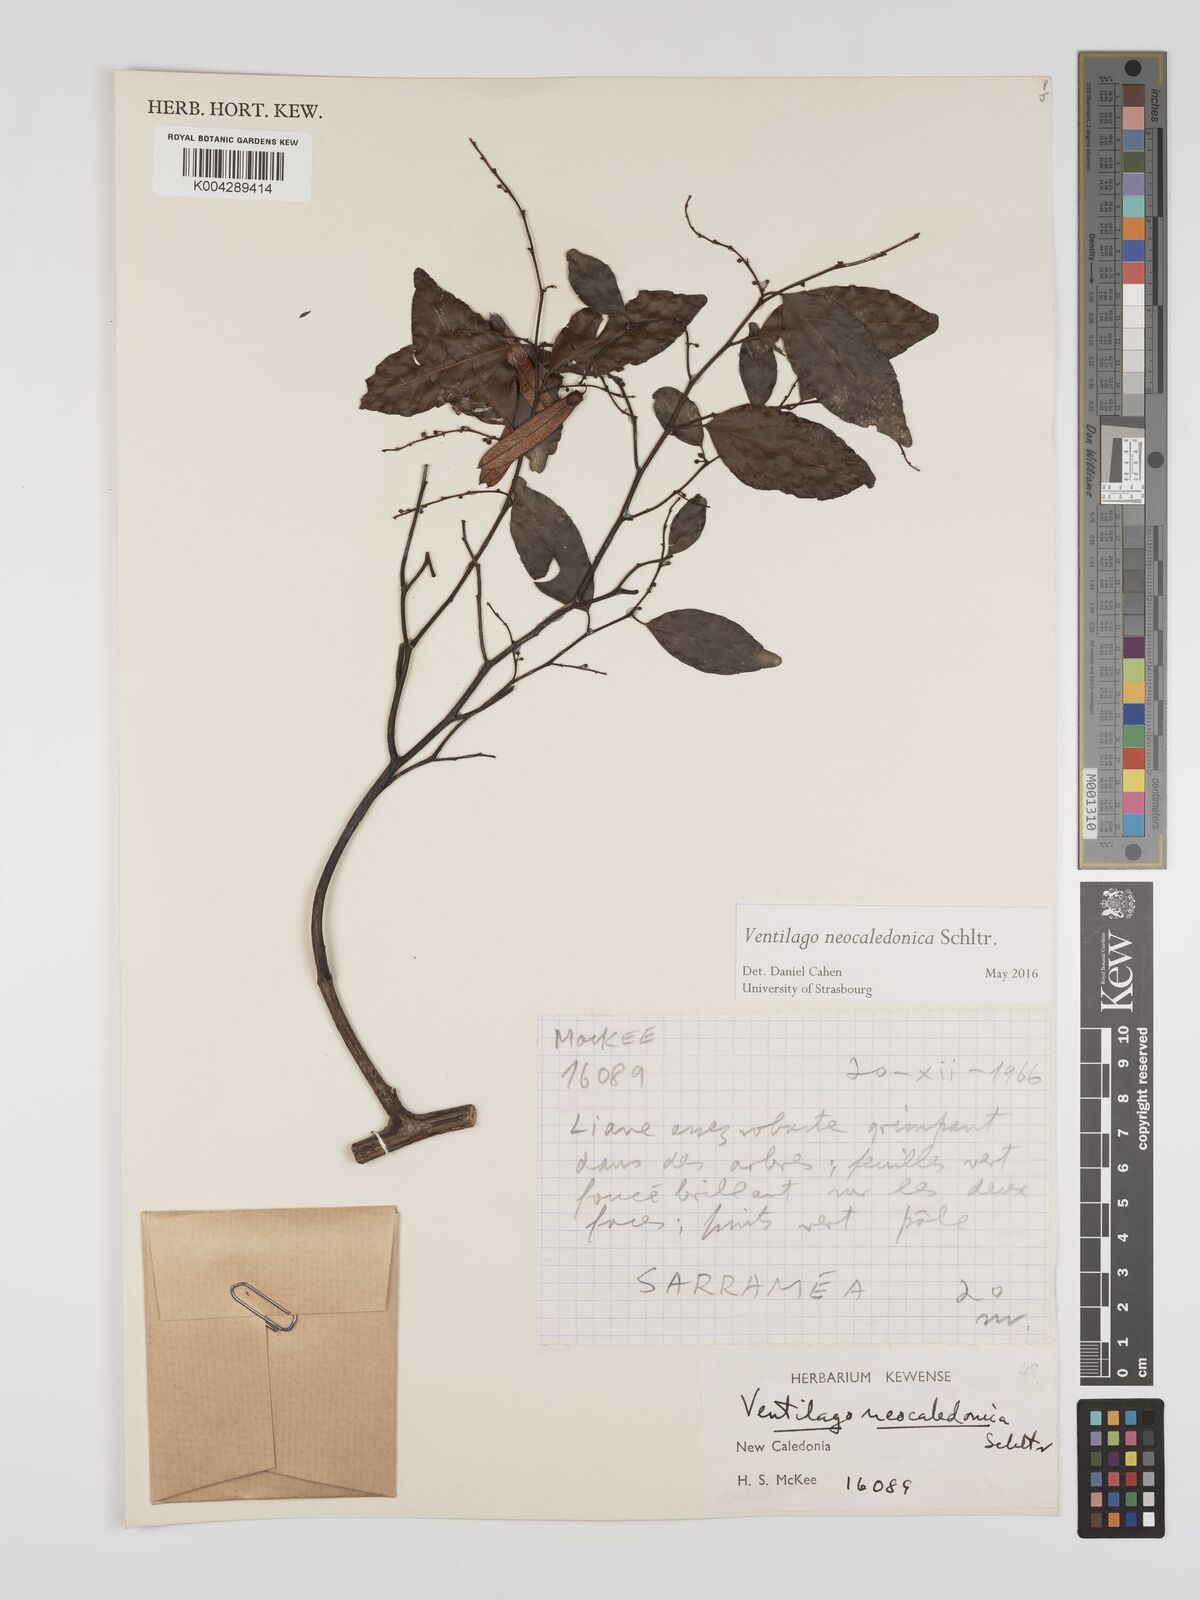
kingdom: Plantae
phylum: Tracheophyta
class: Magnoliopsida
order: Rosales
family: Rhamnaceae
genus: Ventilago
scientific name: Ventilago neocaledonica
